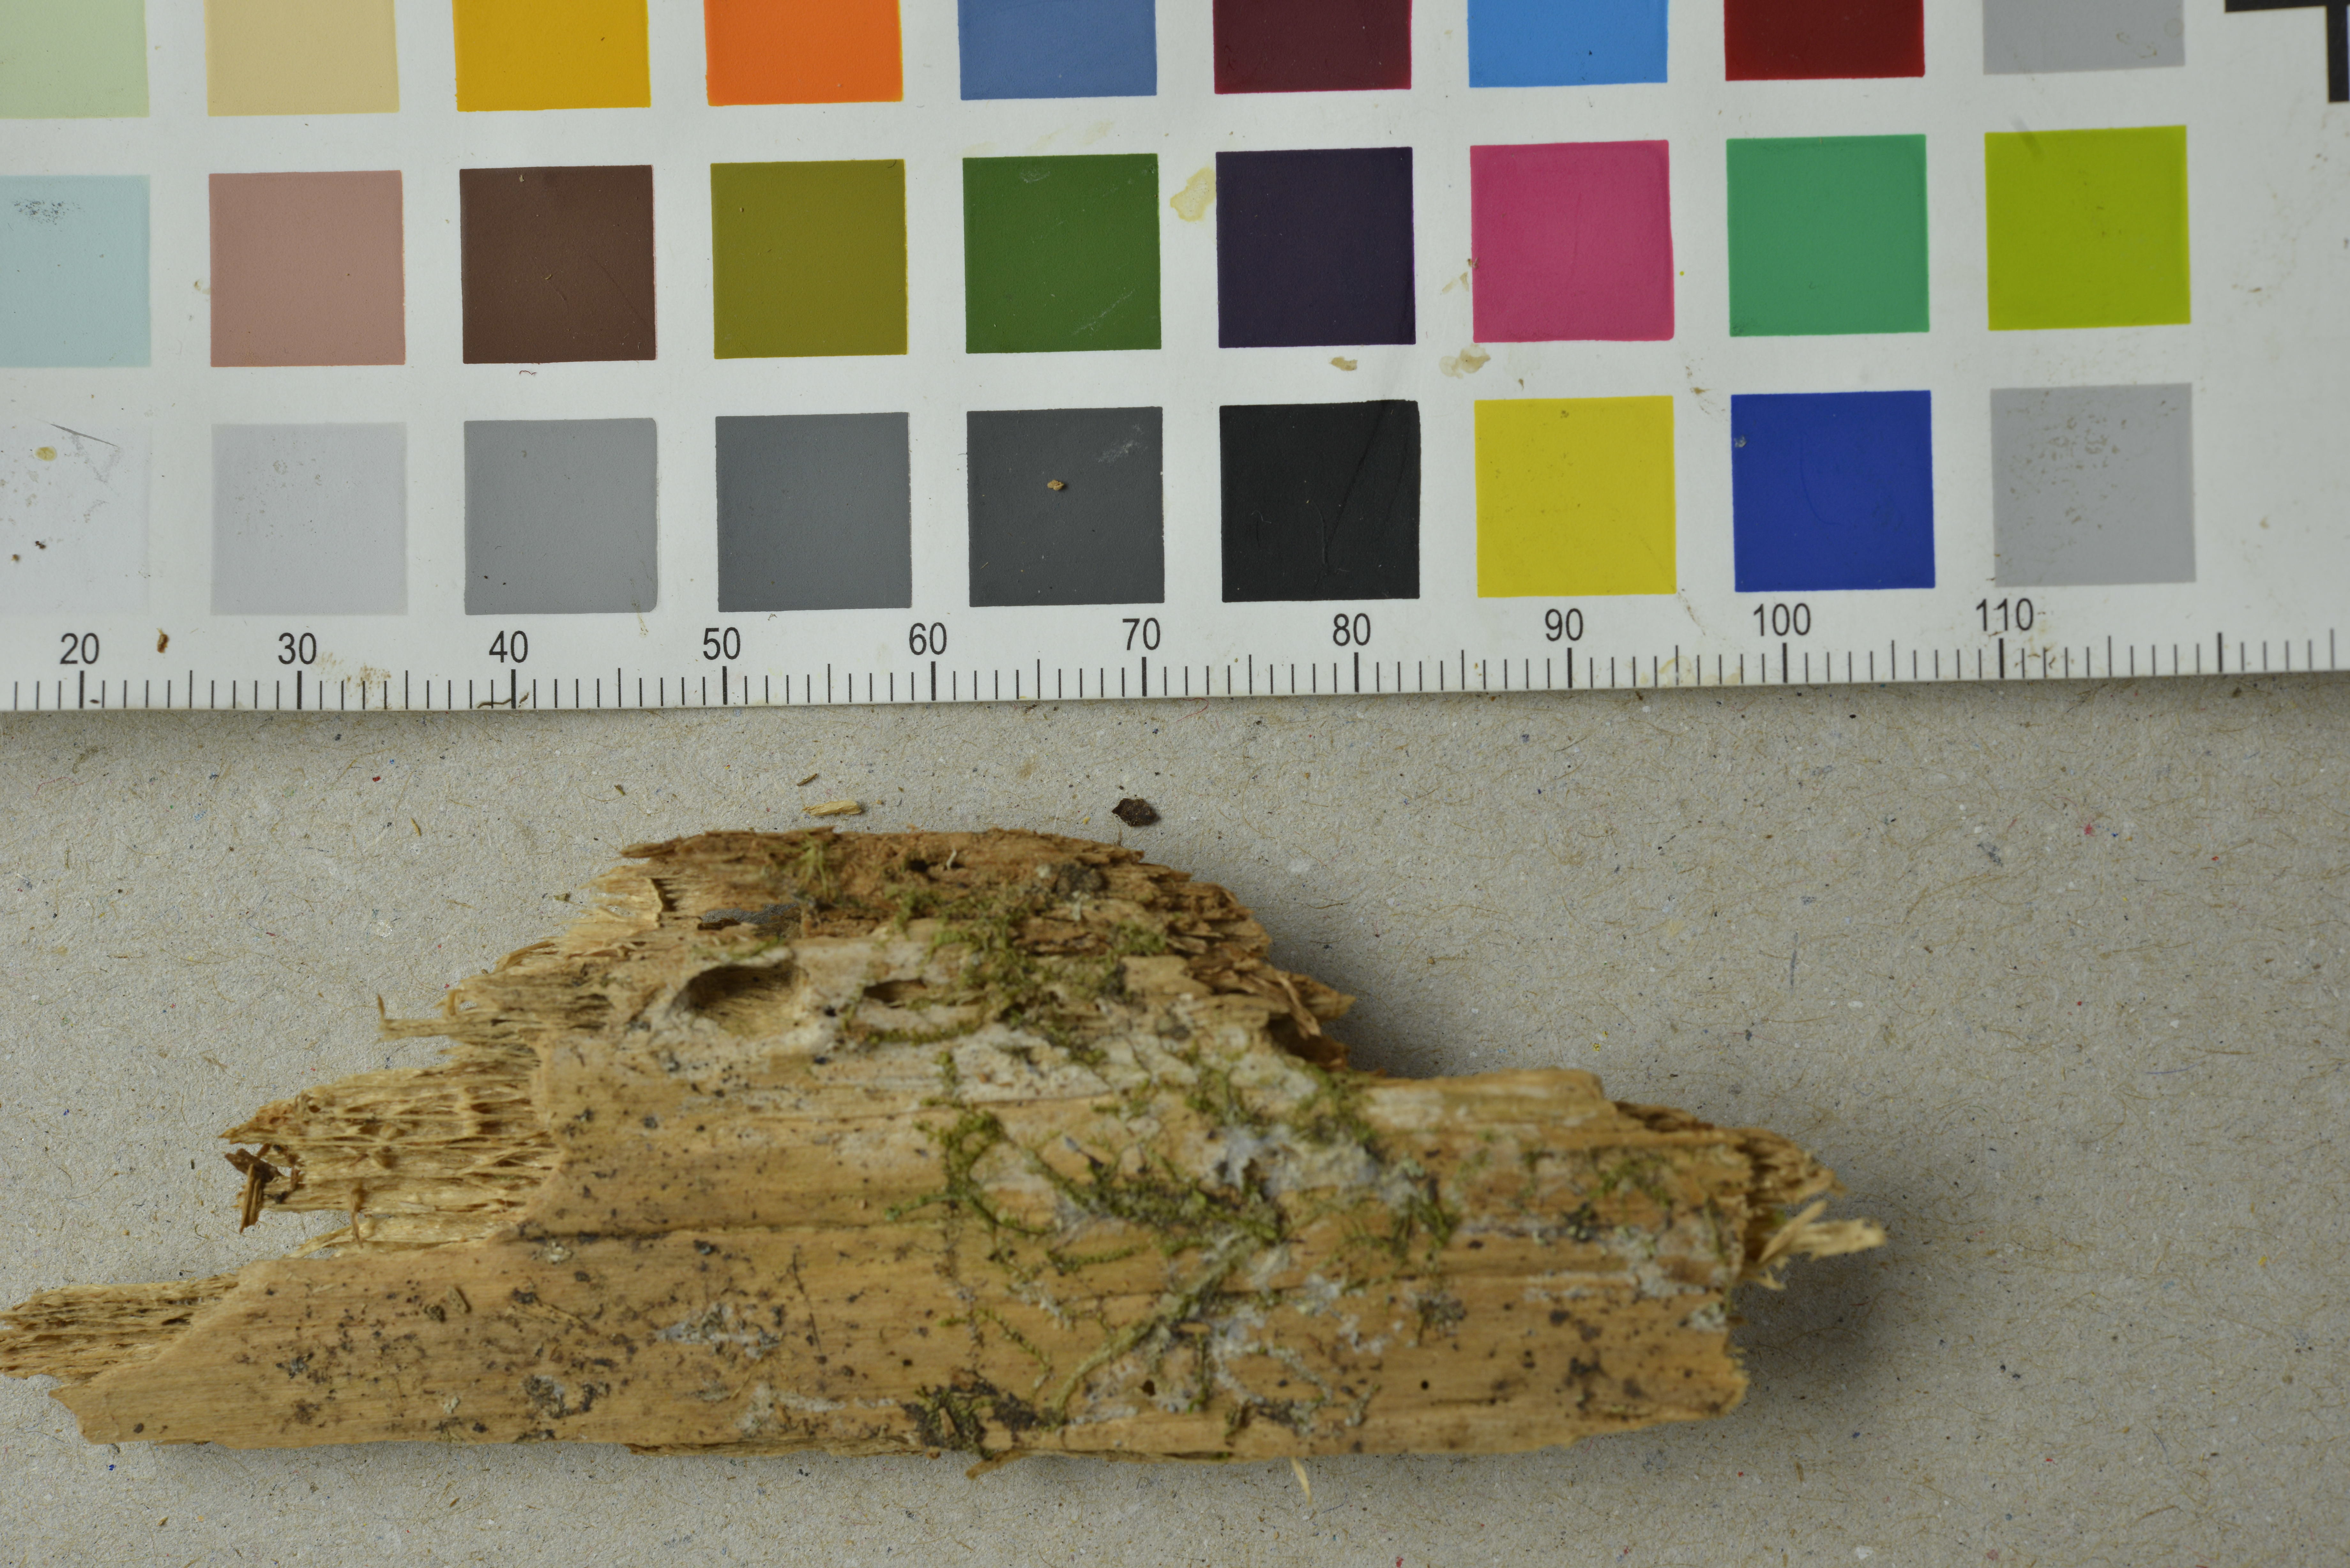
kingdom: Fungi
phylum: Basidiomycota
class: Agaricomycetes
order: Hymenochaetales
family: Hymenochaetaceae
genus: Tubulicrinis
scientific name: Tubulicrinis strangulatus
